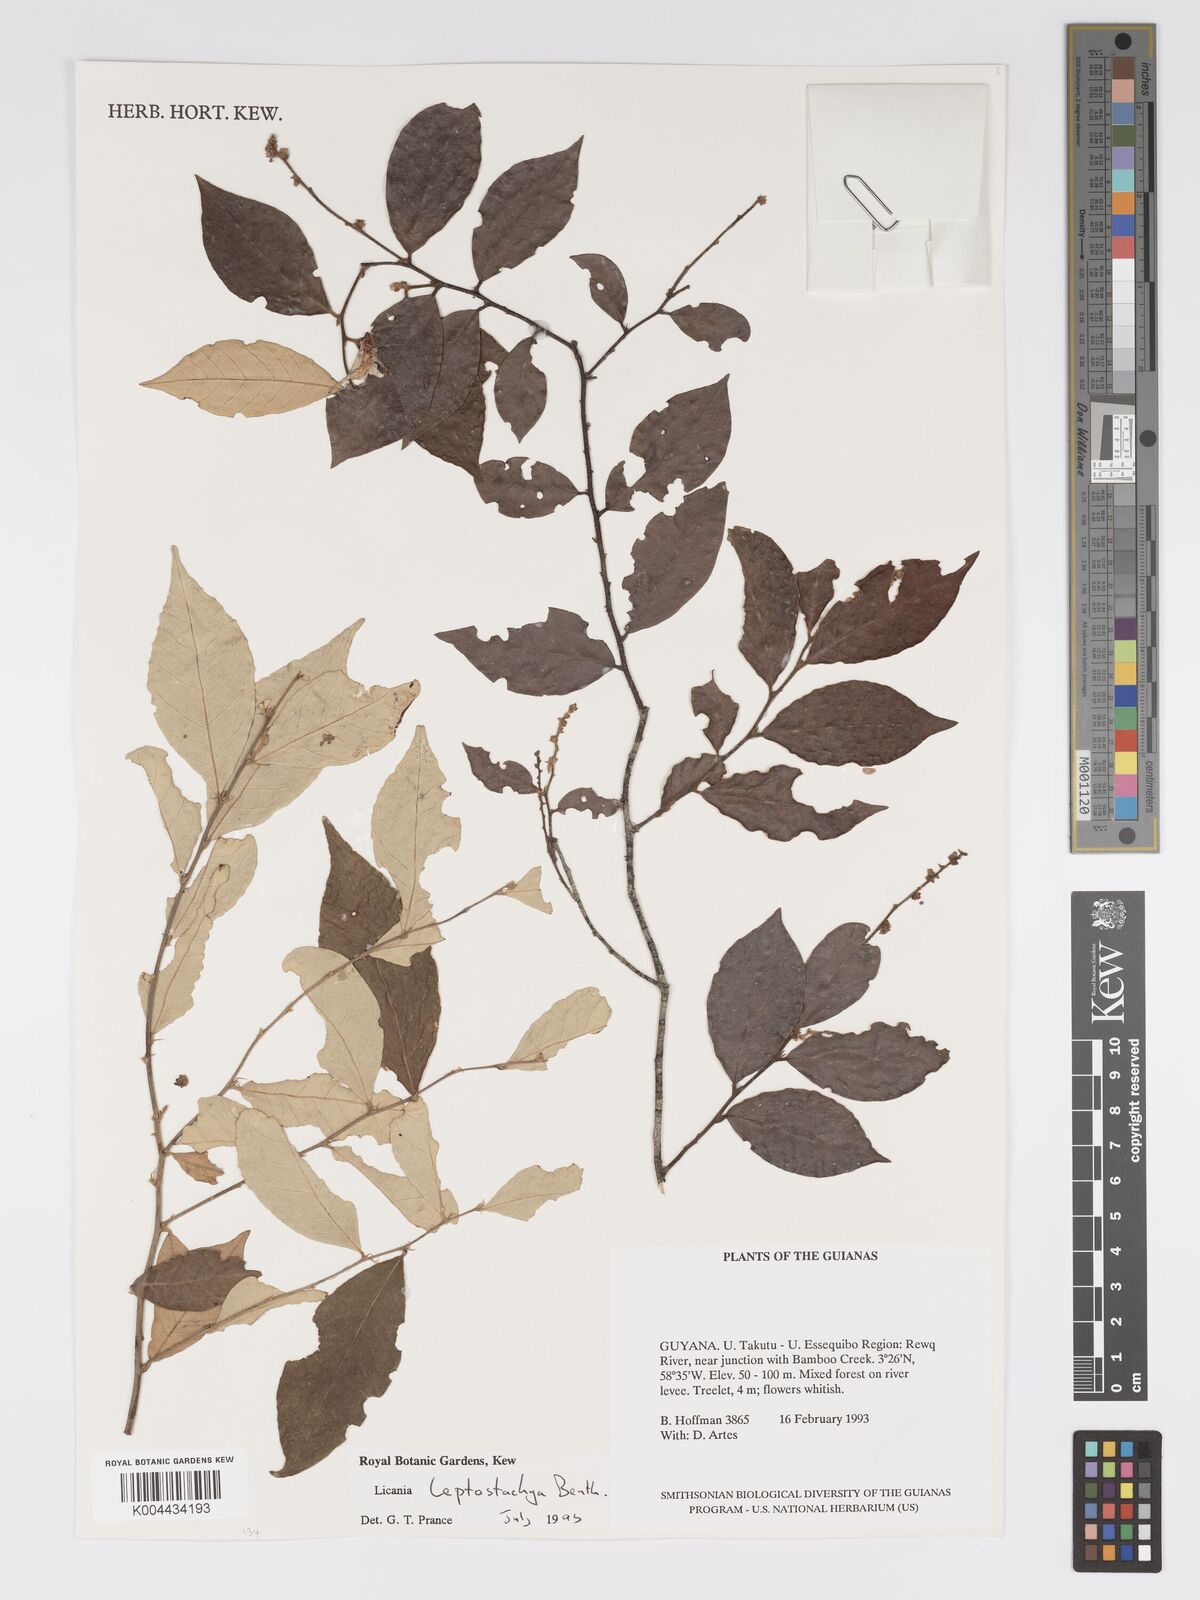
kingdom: Plantae
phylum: Tracheophyta
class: Magnoliopsida
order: Malpighiales
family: Chrysobalanaceae
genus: Licania
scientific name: Licania leptostachya
